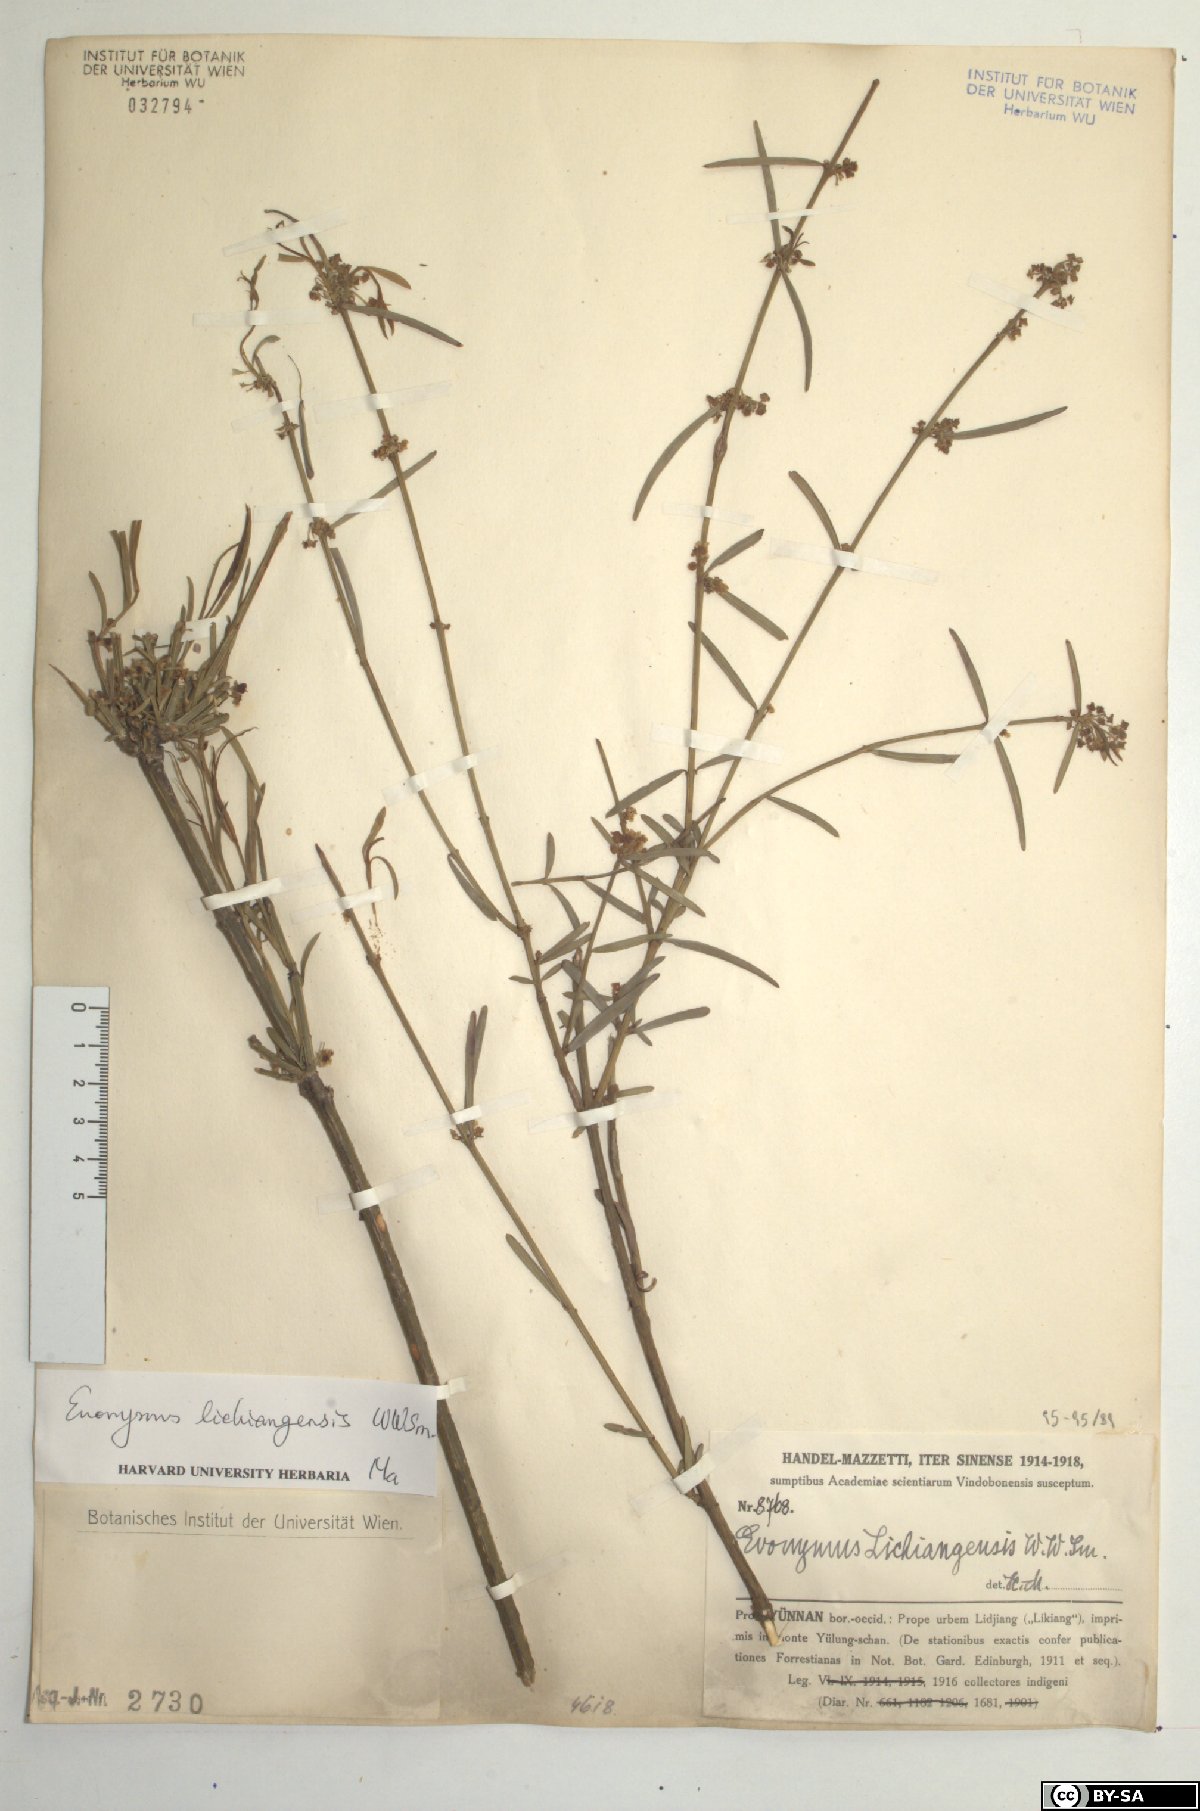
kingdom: Plantae
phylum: Tracheophyta
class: Magnoliopsida
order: Celastrales
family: Celastraceae
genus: Euonymus
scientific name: Euonymus lichiangensis
